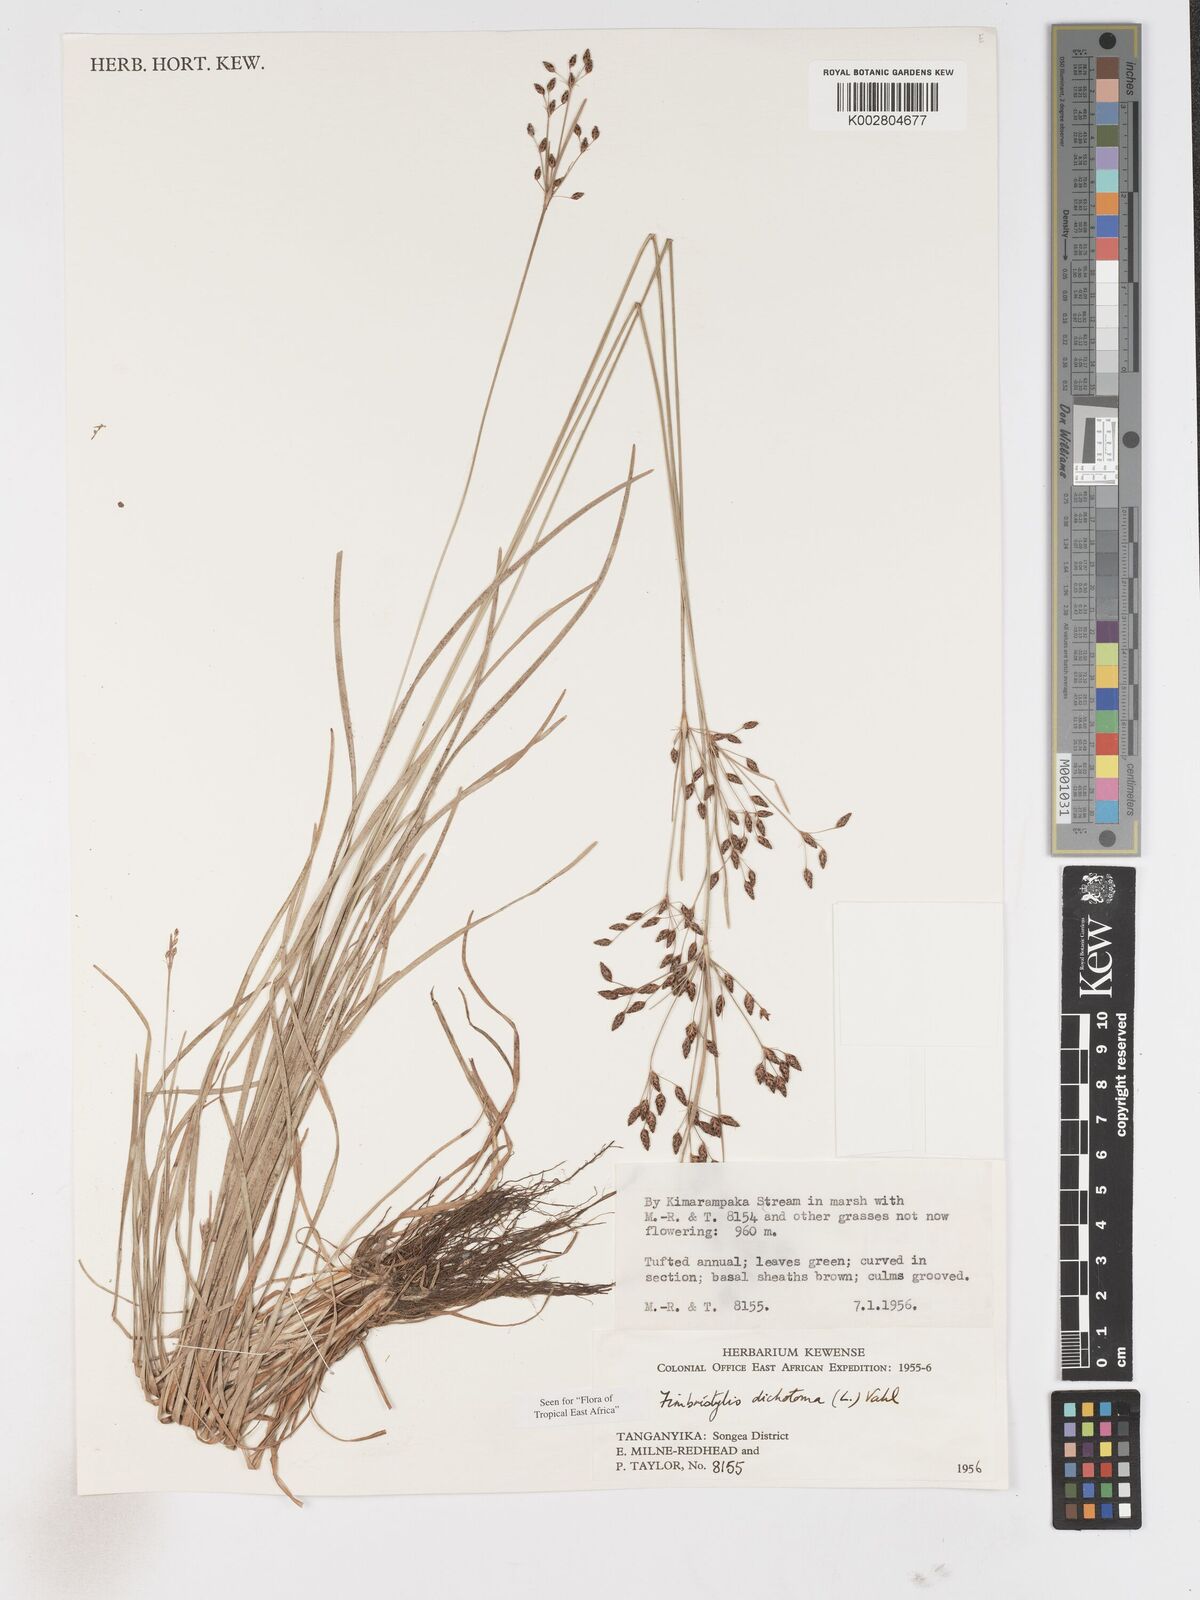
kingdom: Plantae
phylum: Tracheophyta
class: Liliopsida
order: Poales
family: Cyperaceae
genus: Fimbristylis
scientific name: Fimbristylis dichotoma
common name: Forked fimbry
